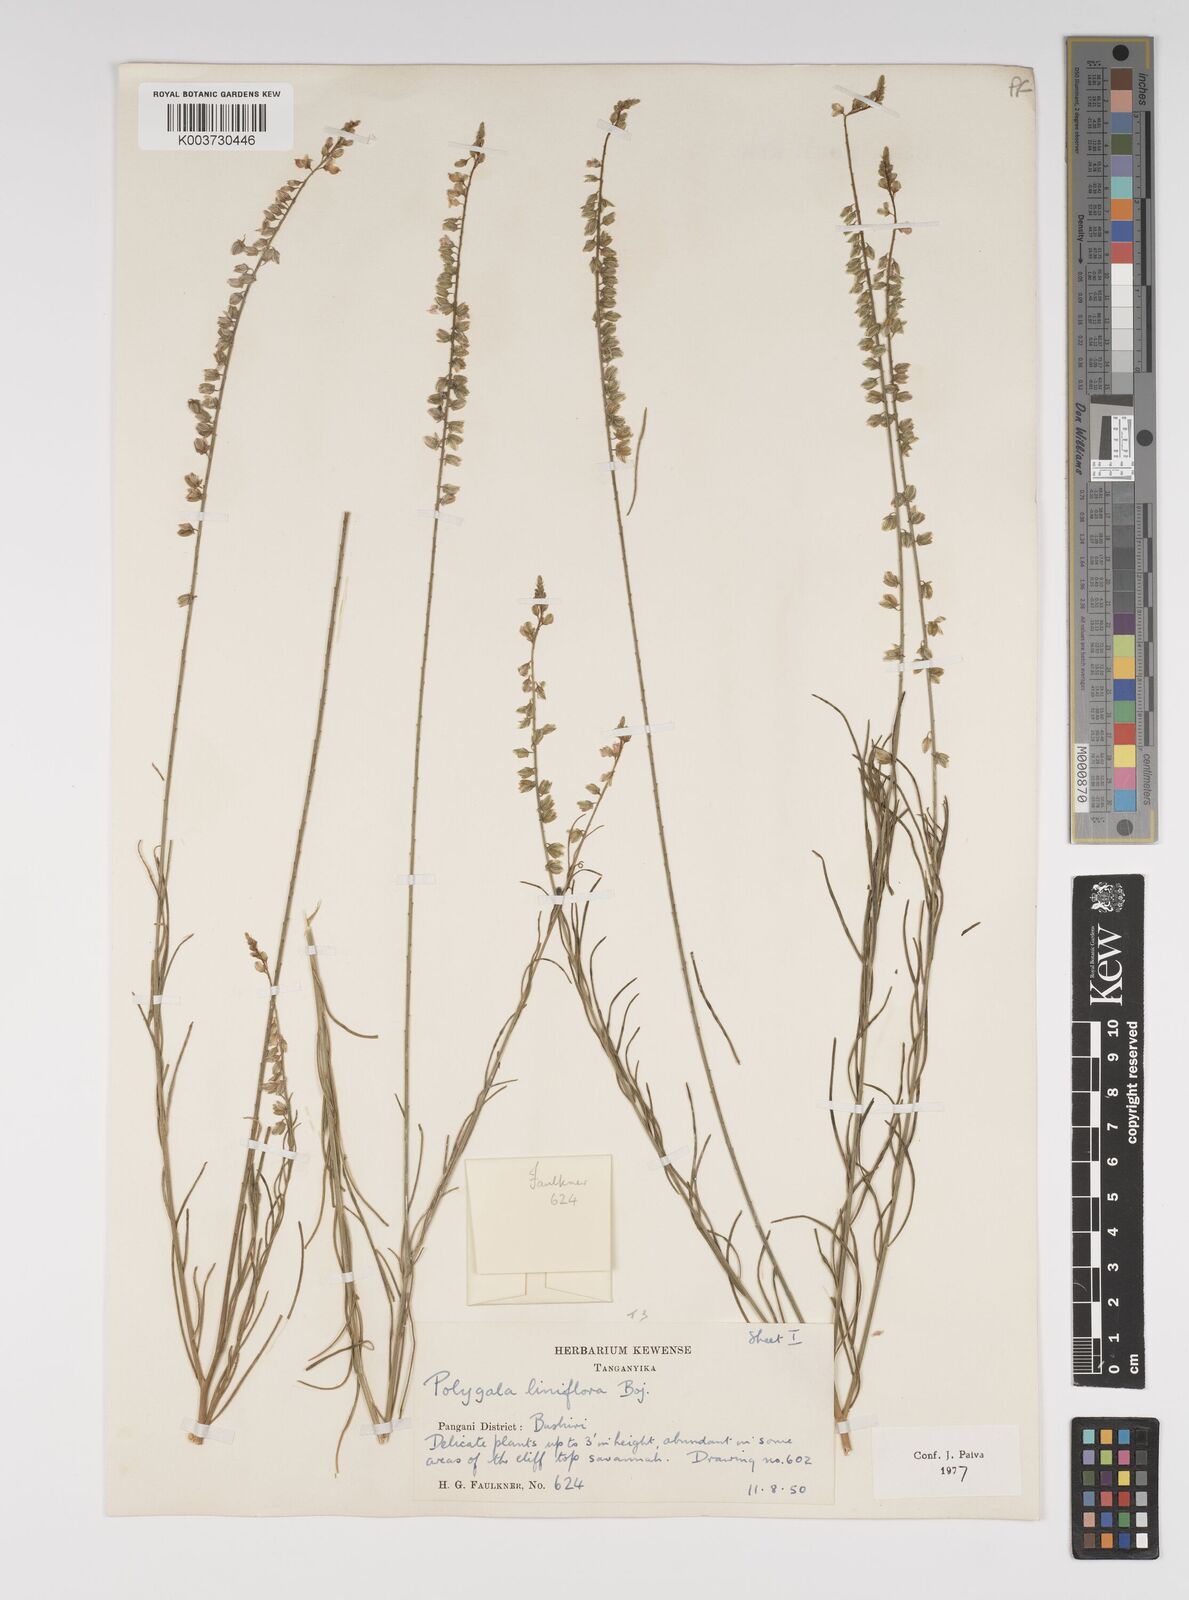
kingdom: Plantae
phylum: Tracheophyta
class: Magnoliopsida
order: Fabales
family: Polygalaceae
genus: Polygala
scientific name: Polygala conosperma
